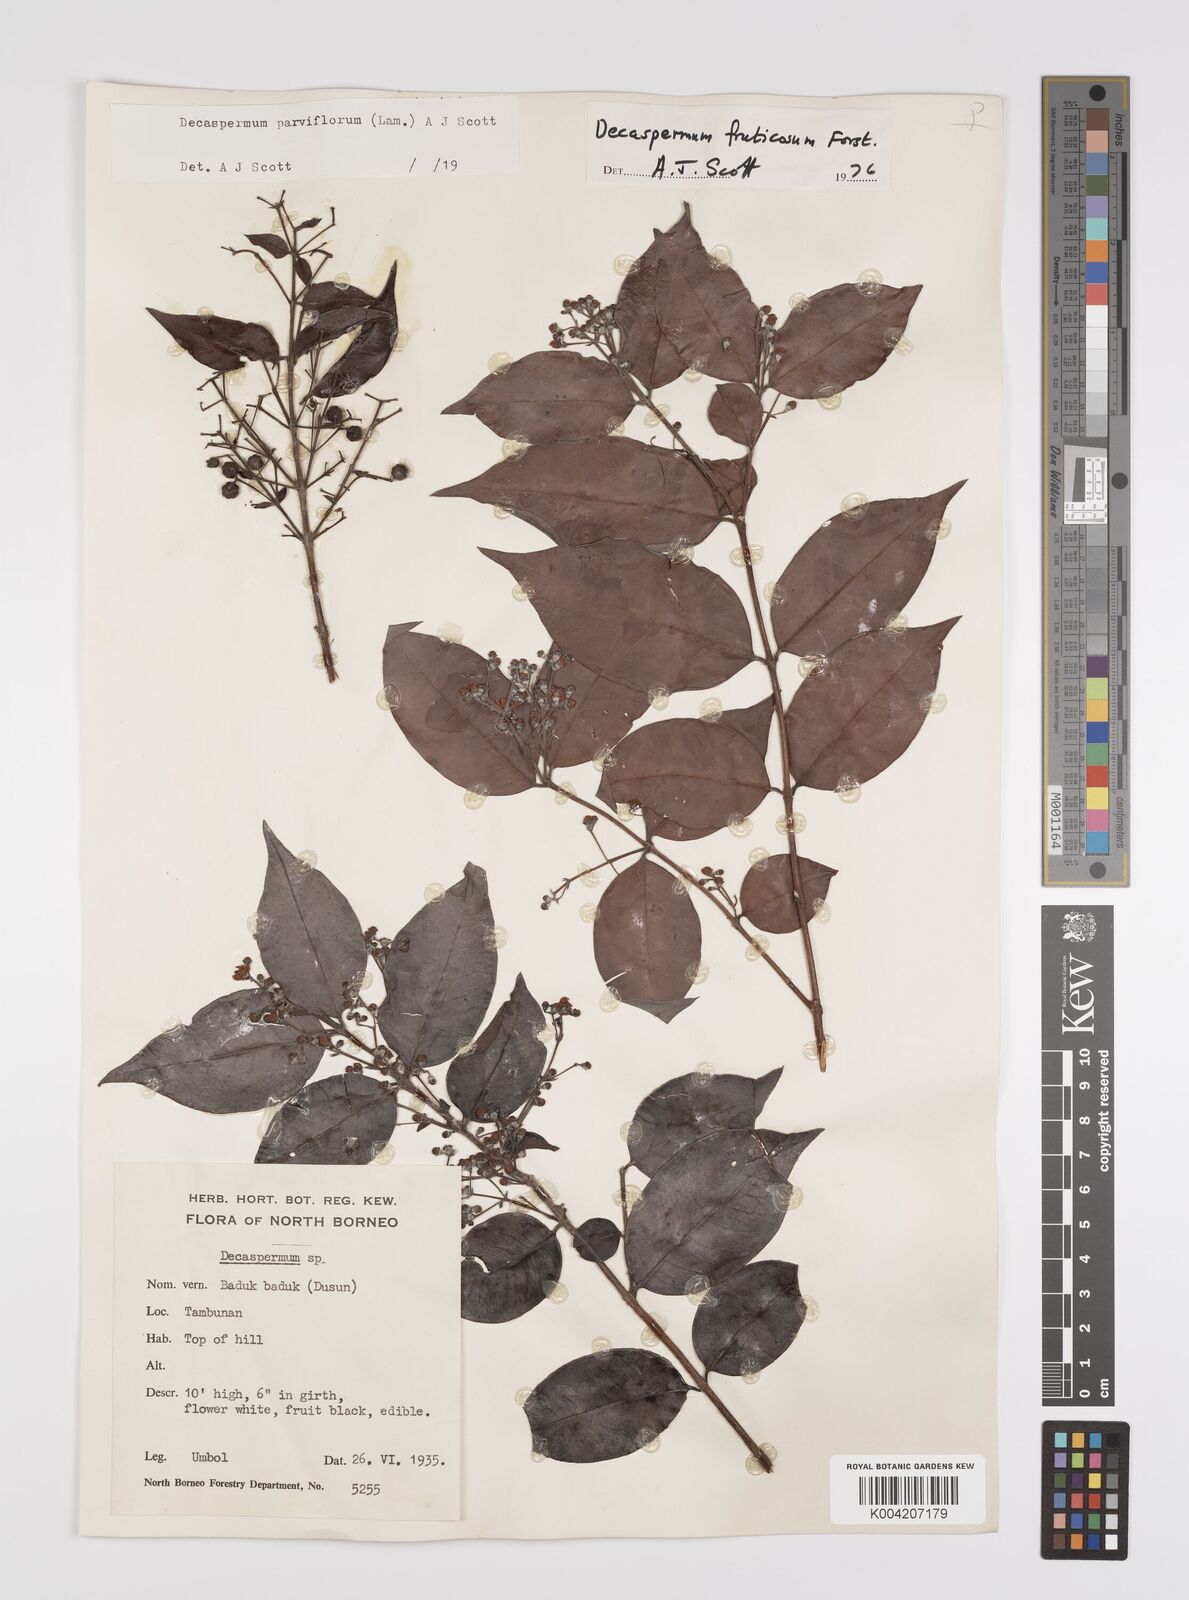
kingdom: Plantae
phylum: Tracheophyta
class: Magnoliopsida
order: Myrtales
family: Myrtaceae
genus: Decaspermum
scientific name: Decaspermum fruticosum
